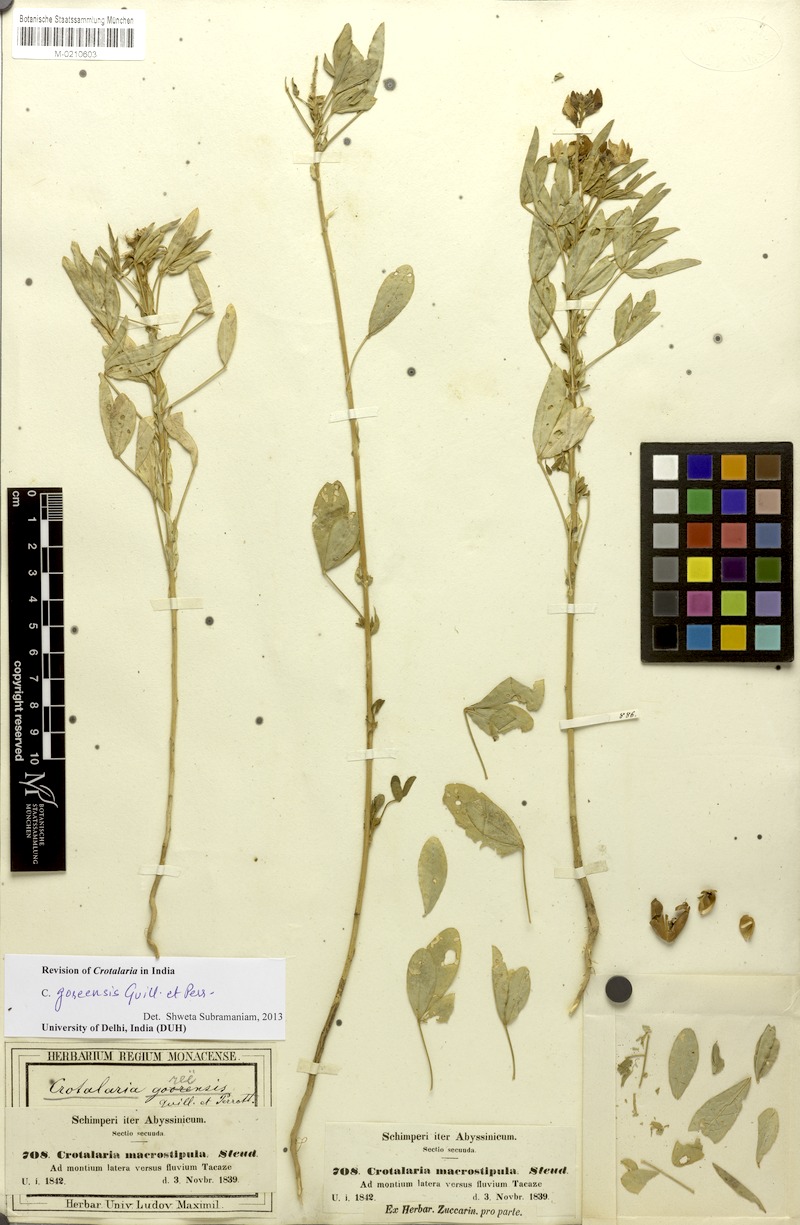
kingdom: Plantae
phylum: Tracheophyta
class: Magnoliopsida
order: Fabales
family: Fabaceae
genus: Crotalaria
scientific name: Crotalaria goreensis
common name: Gambia-pea
